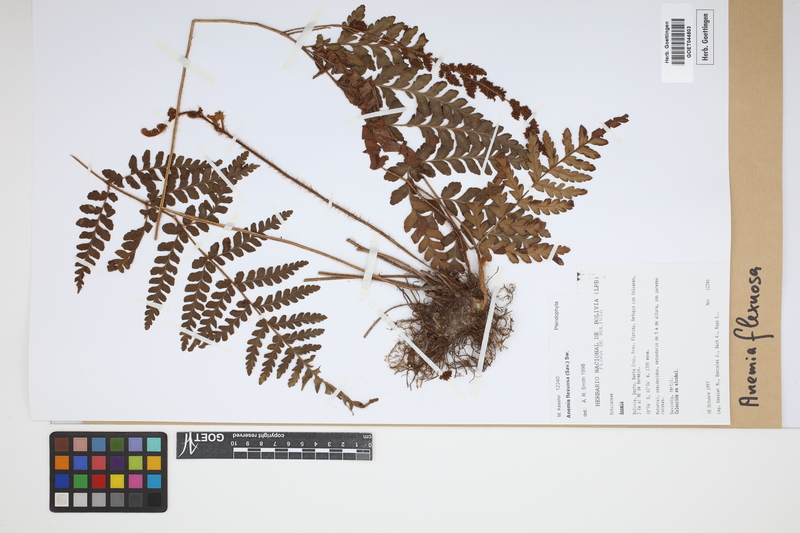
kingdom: Plantae
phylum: Tracheophyta
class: Polypodiopsida
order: Schizaeales
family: Anemiaceae
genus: Anemia
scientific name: Anemia flexuosa
